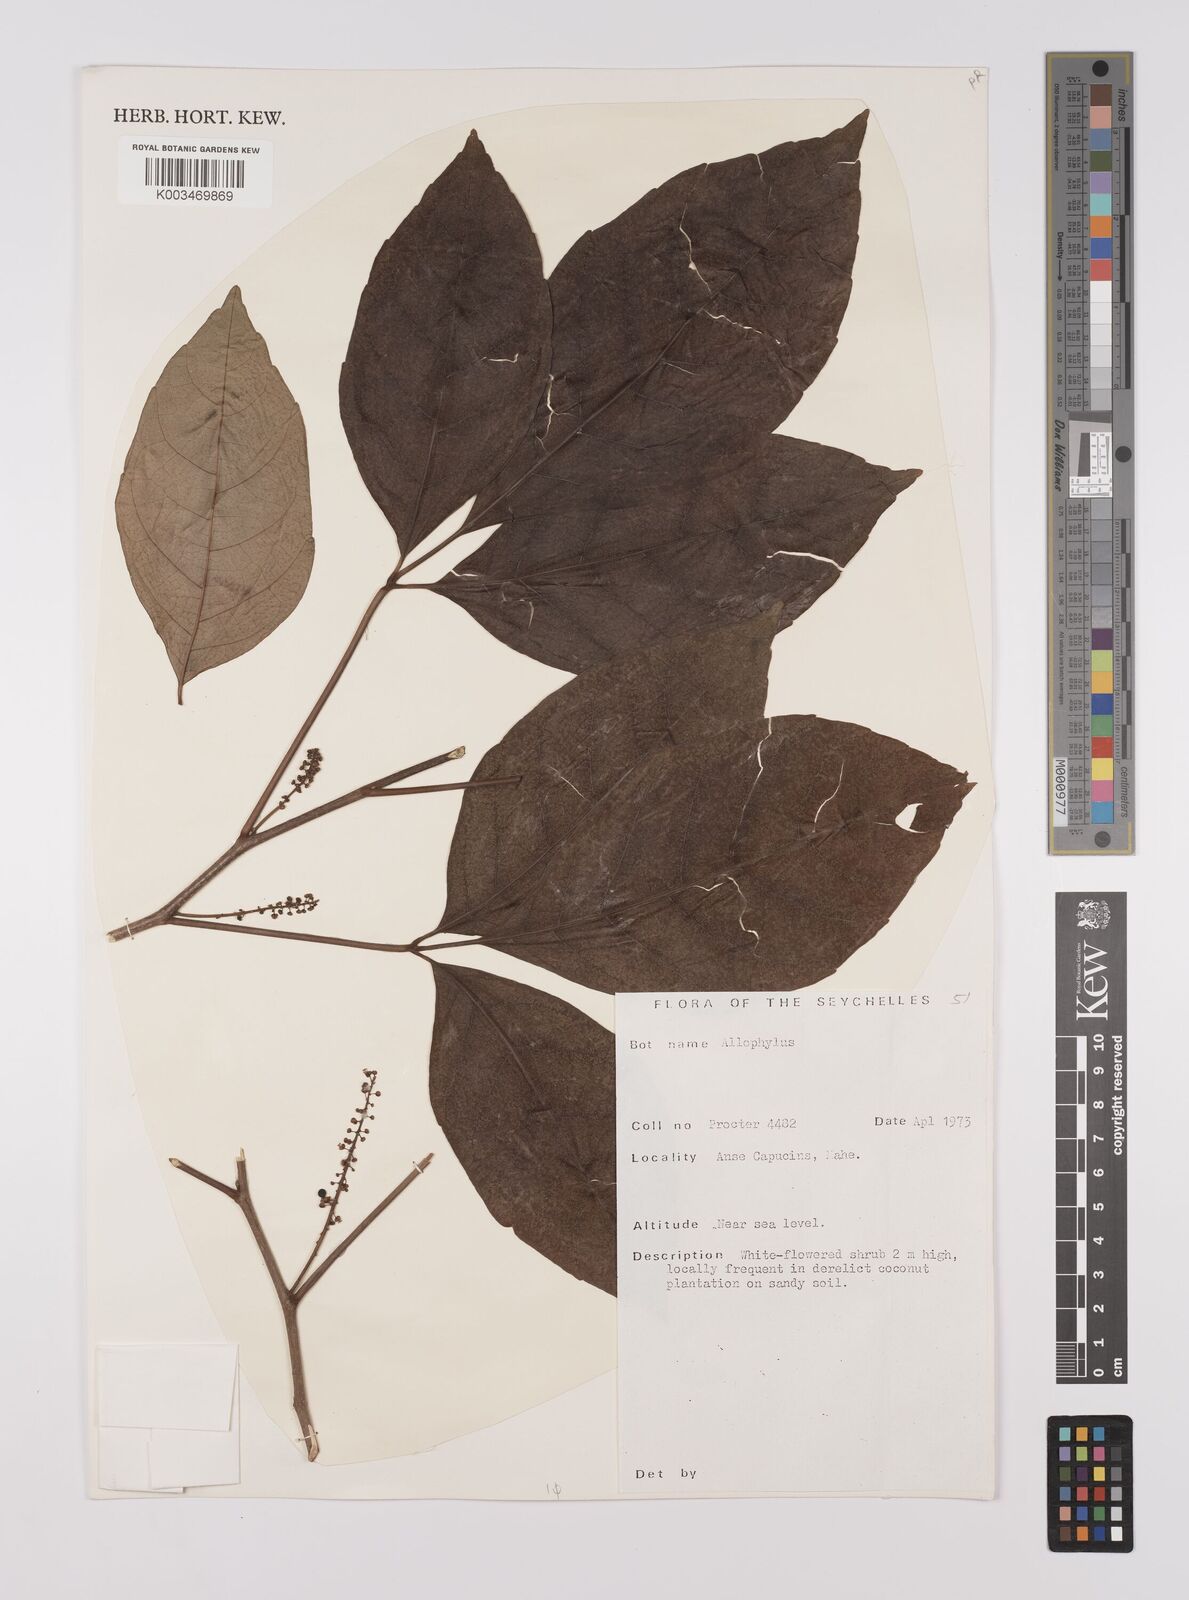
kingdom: Plantae
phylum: Tracheophyta
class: Magnoliopsida
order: Sapindales
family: Sapindaceae
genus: Allophylus
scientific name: Allophylus sechellensis
